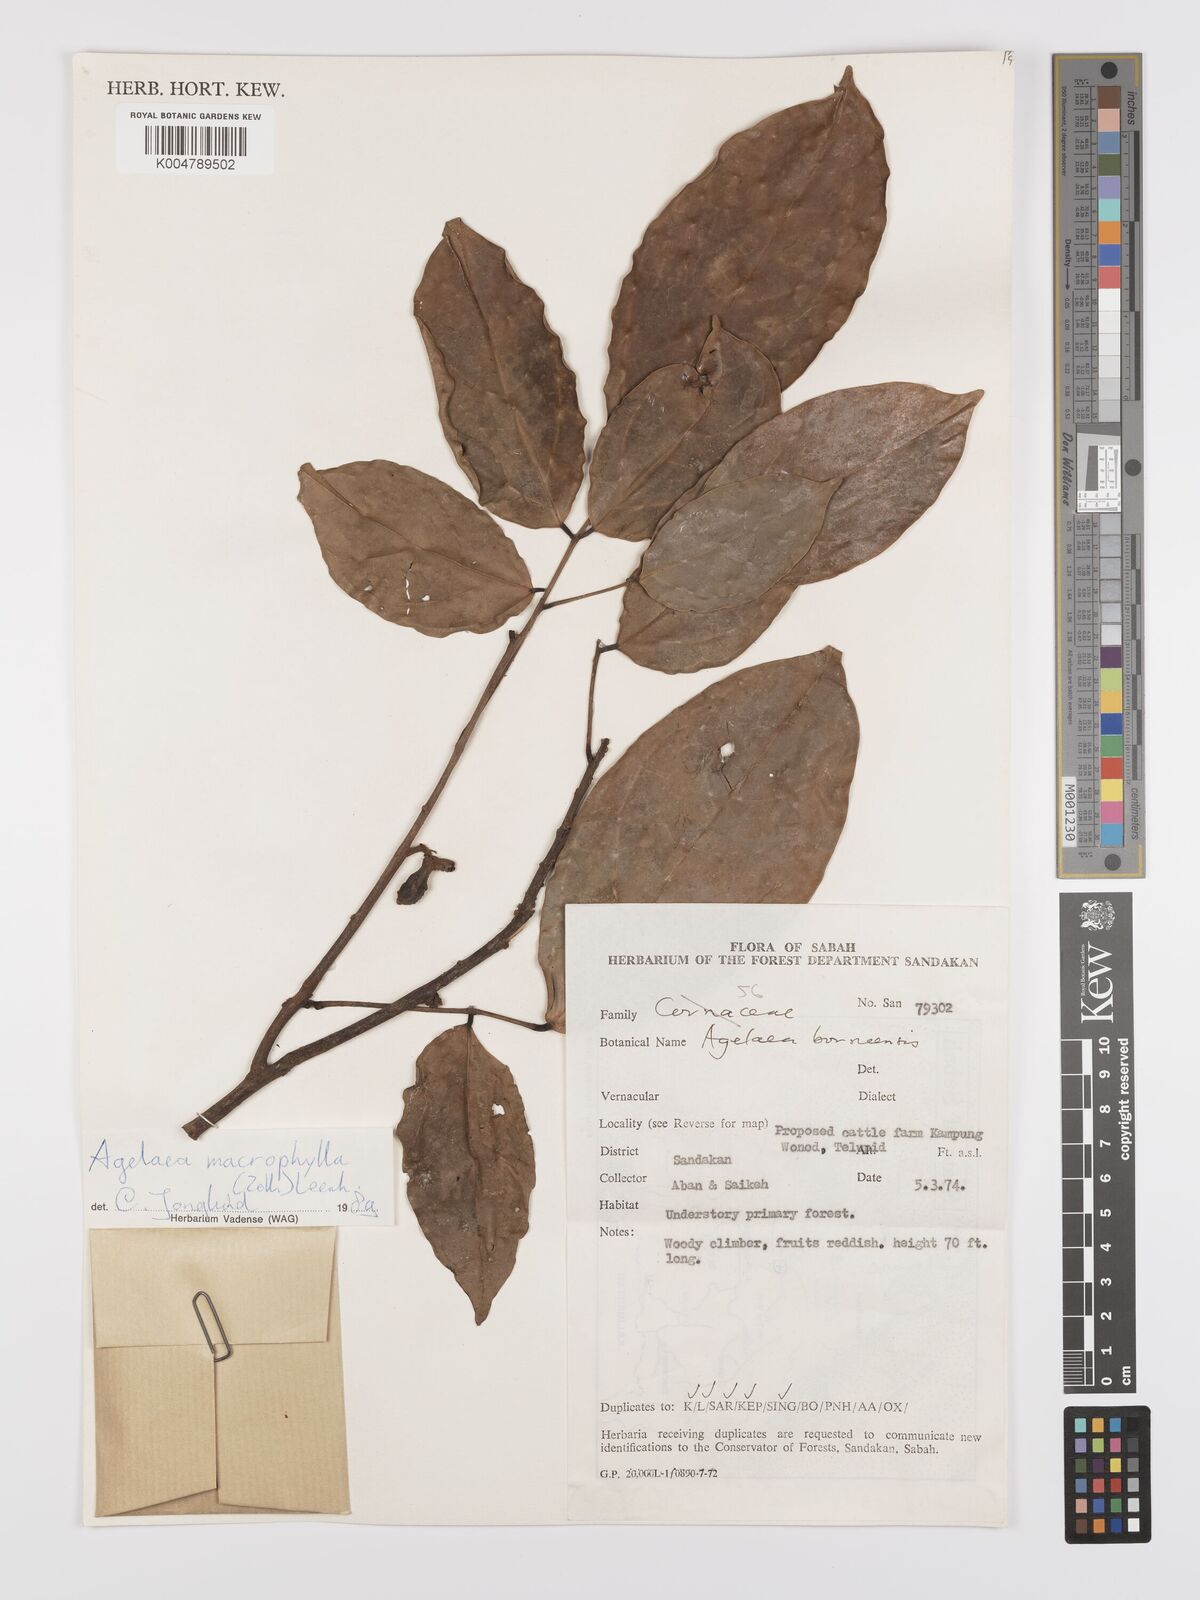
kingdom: Plantae
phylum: Tracheophyta
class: Magnoliopsida
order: Oxalidales
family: Connaraceae
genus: Agelaea
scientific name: Agelaea macrophylla
